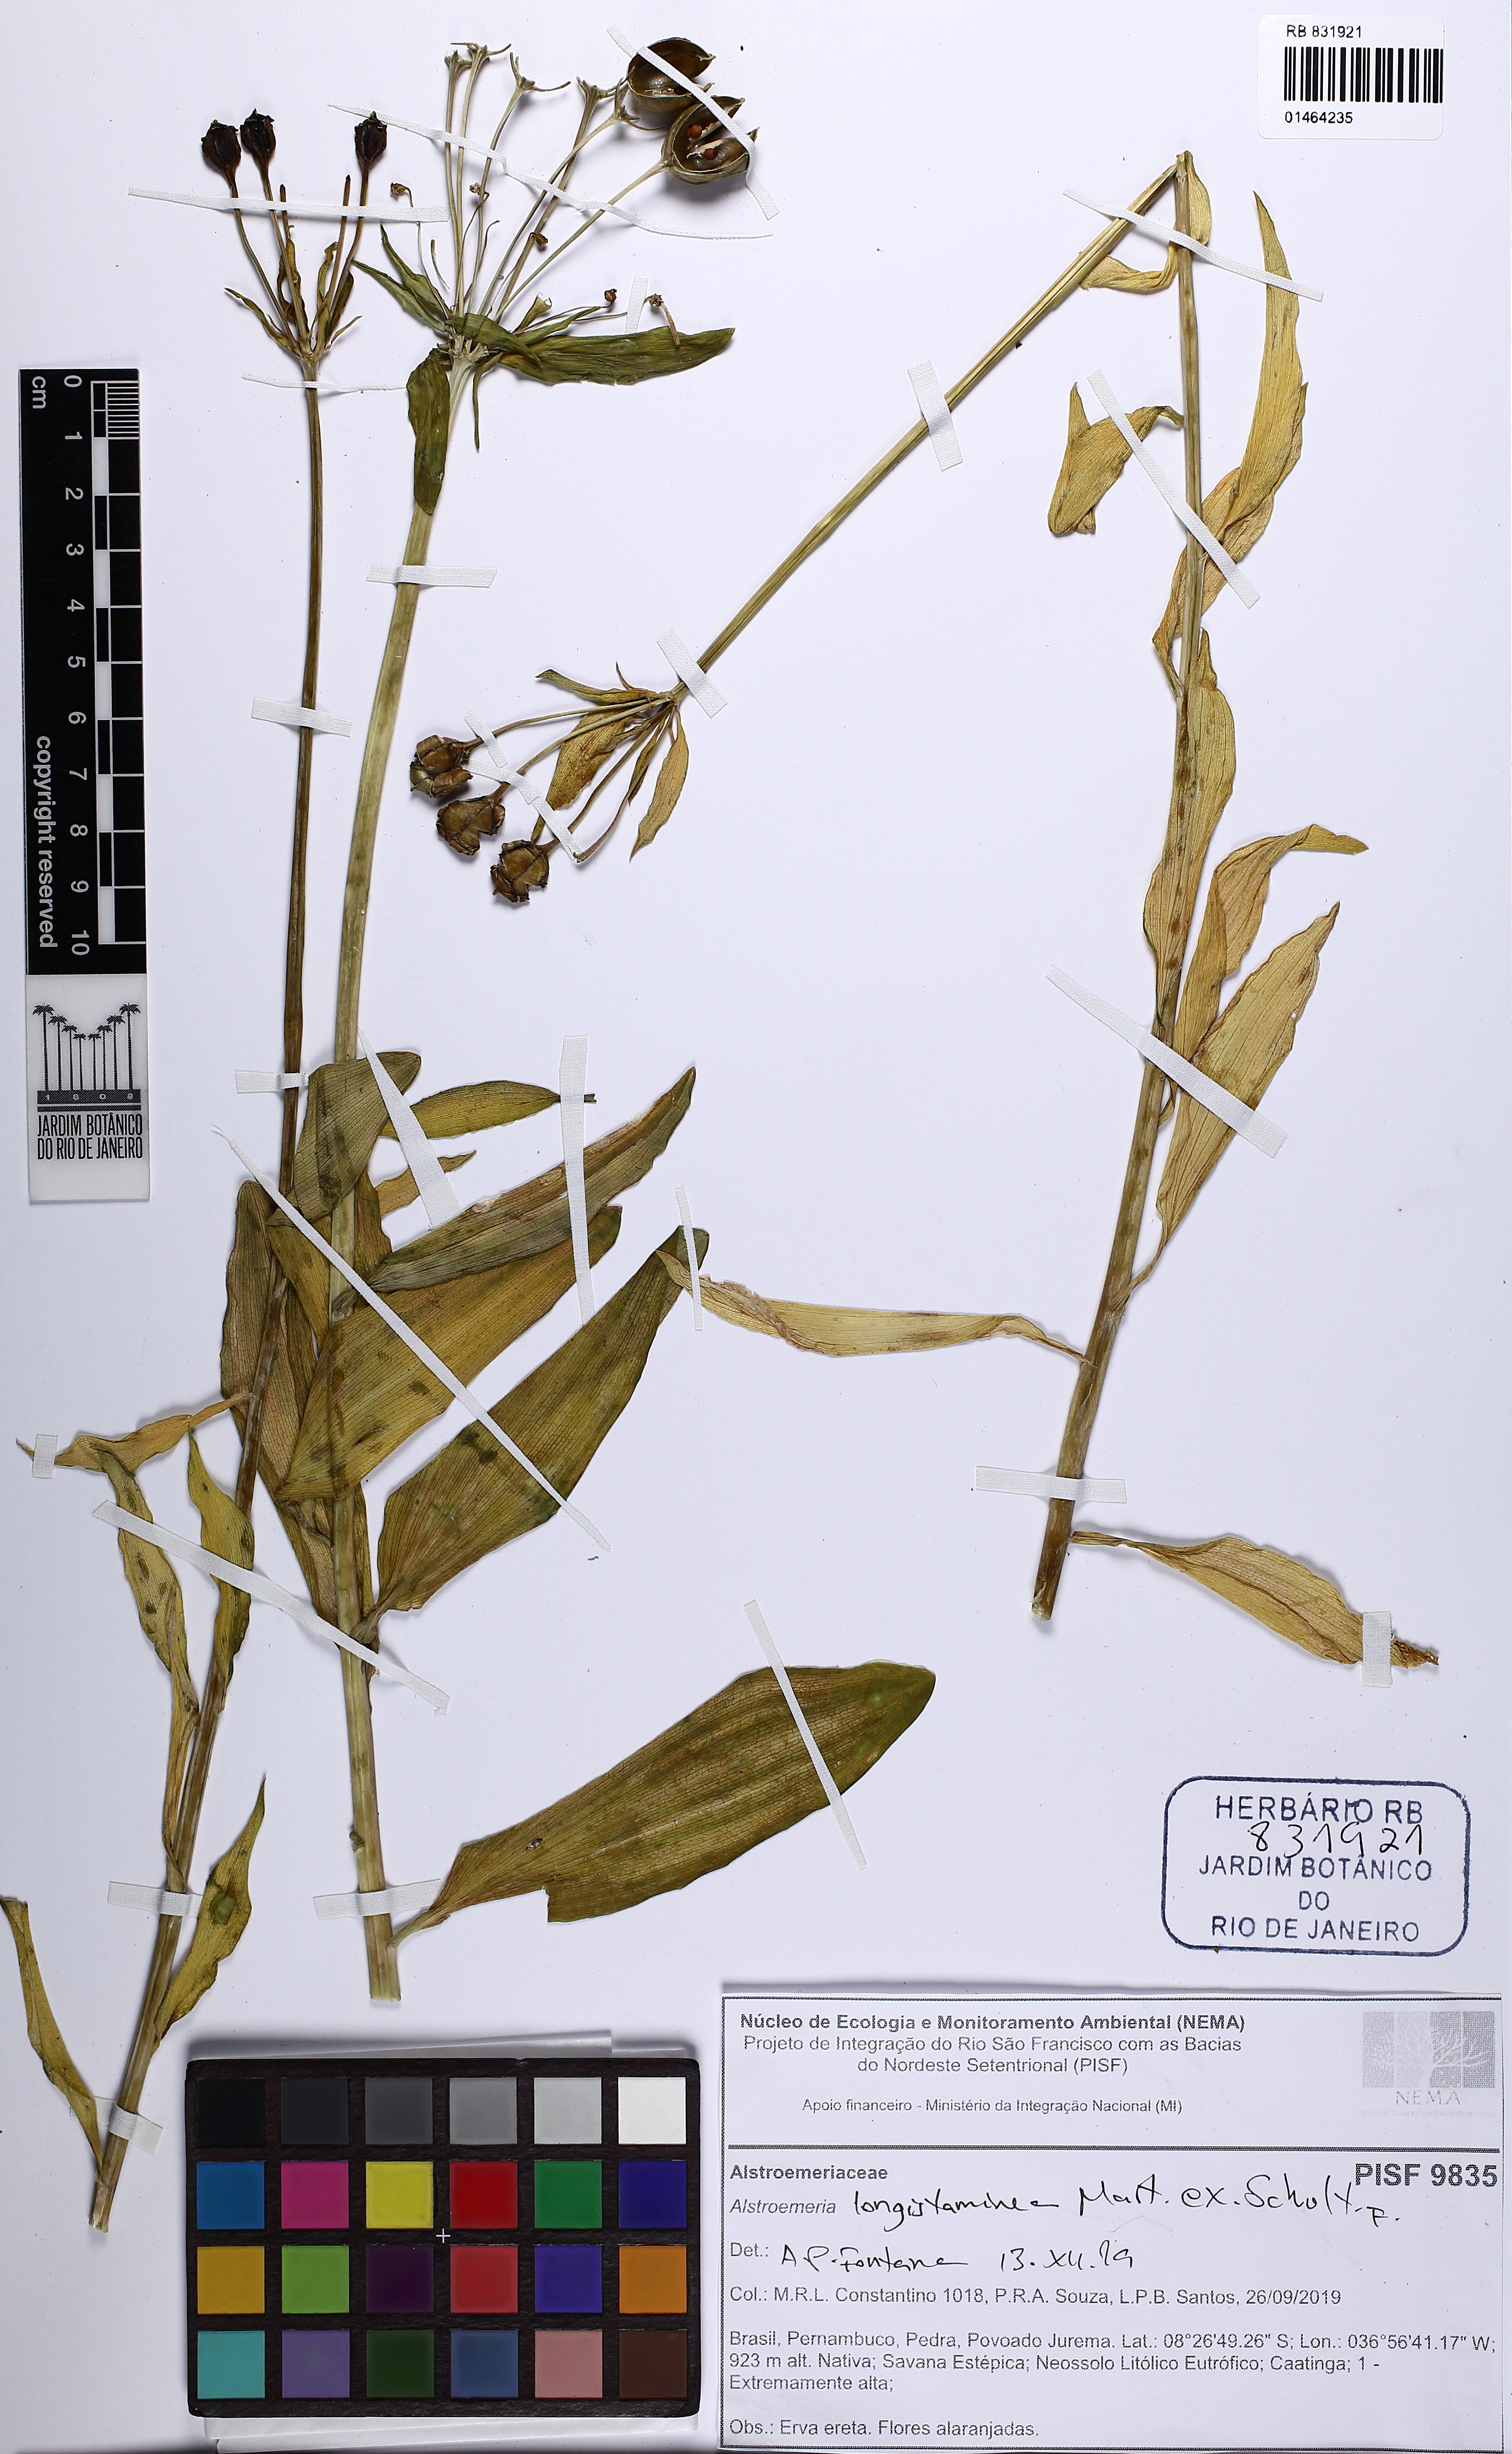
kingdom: Plantae
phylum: Tracheophyta
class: Liliopsida
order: Liliales
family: Alstroemeriaceae
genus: Alstroemeria
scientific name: Alstroemeria longistaminea
